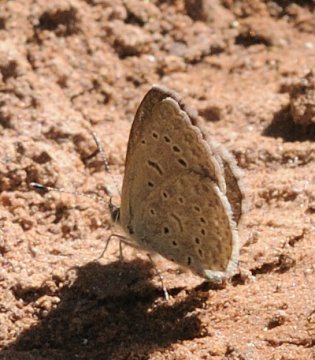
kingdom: Animalia
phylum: Arthropoda
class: Insecta
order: Lepidoptera
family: Lycaenidae
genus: Zizeeria
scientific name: Zizeeria knysna
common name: Dark Grass Blue
